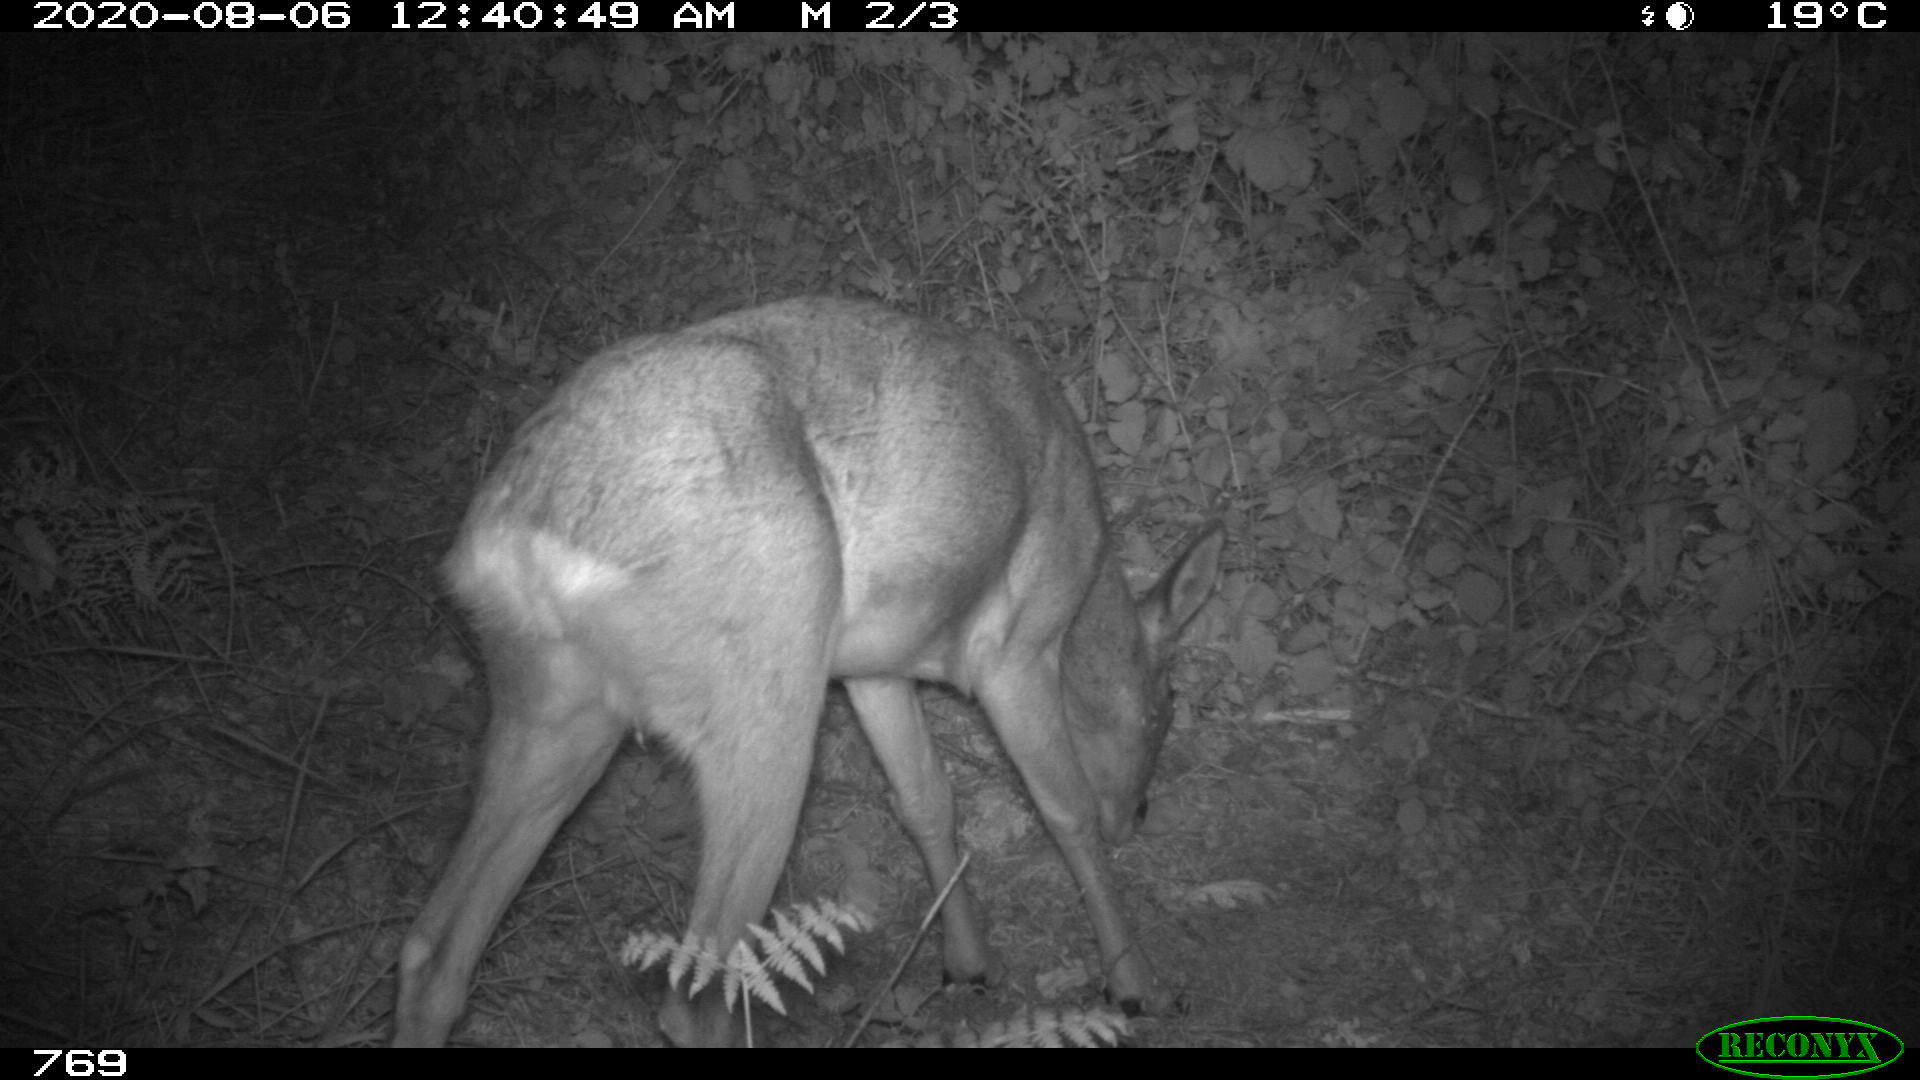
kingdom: Animalia
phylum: Chordata
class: Mammalia
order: Artiodactyla
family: Cervidae
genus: Capreolus
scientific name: Capreolus capreolus
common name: Western roe deer
